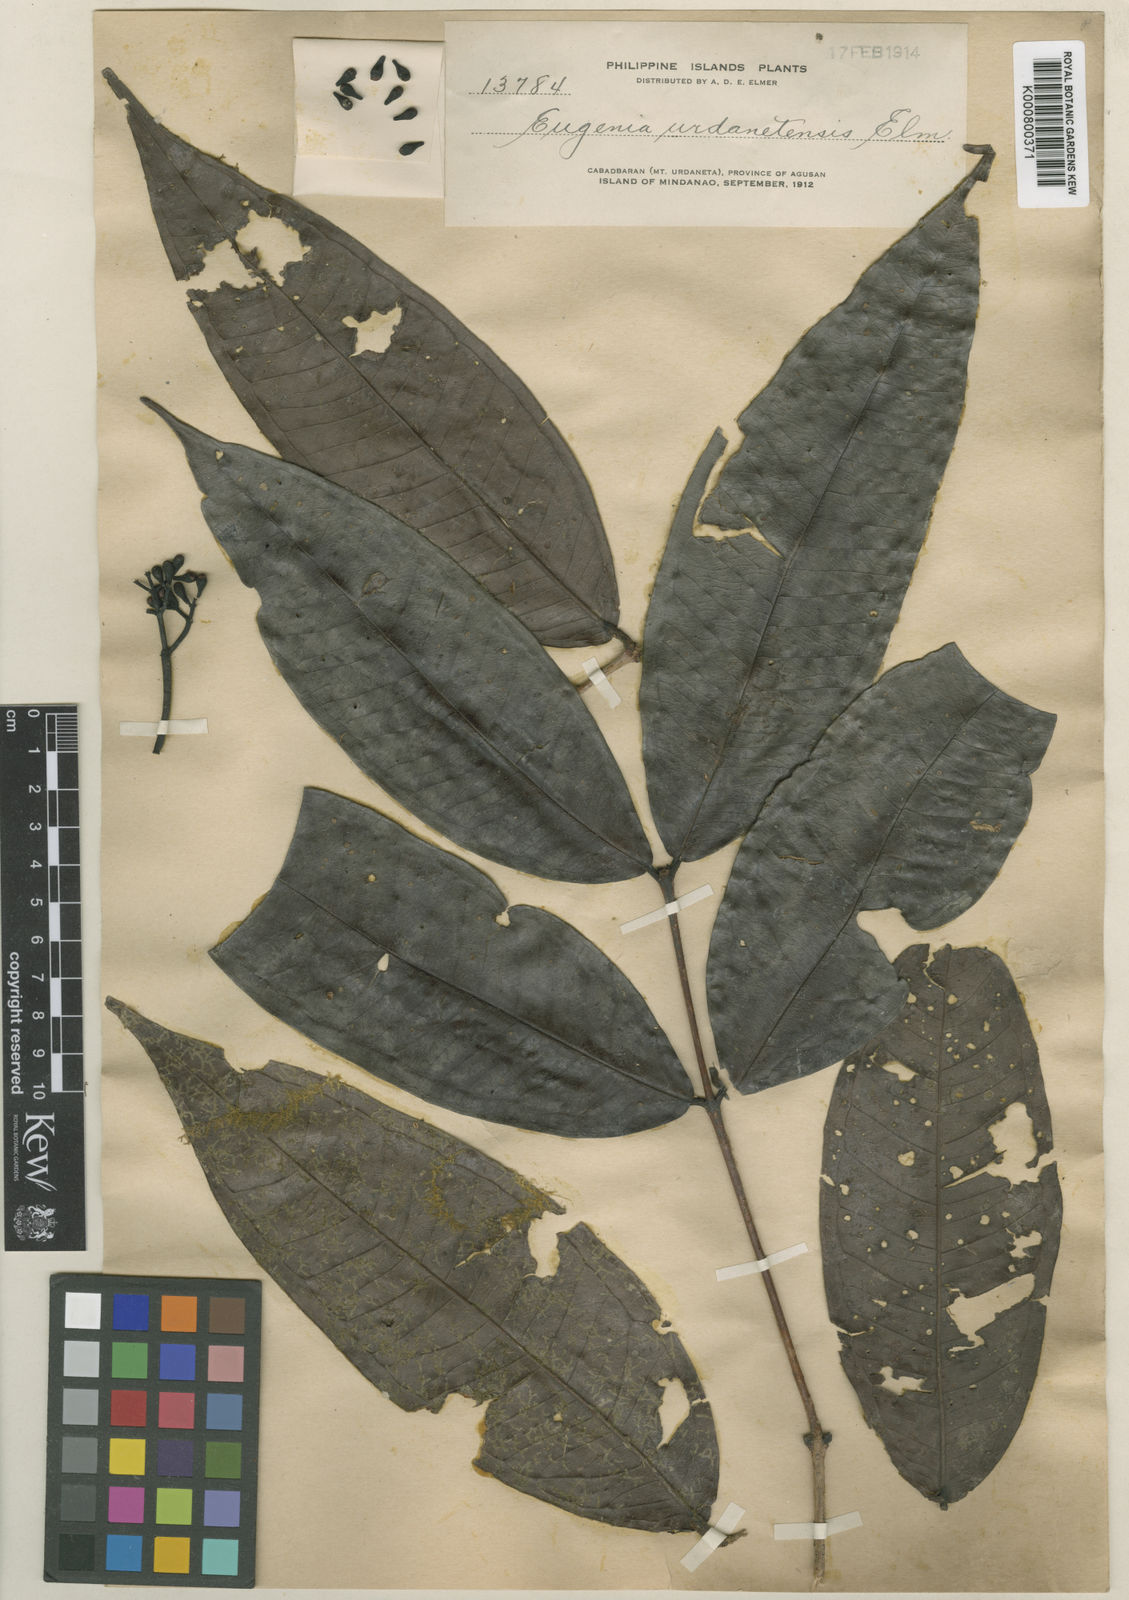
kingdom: Plantae
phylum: Tracheophyta
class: Magnoliopsida
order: Myrtales
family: Myrtaceae
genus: Syzygium
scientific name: Syzygium urdanetense
